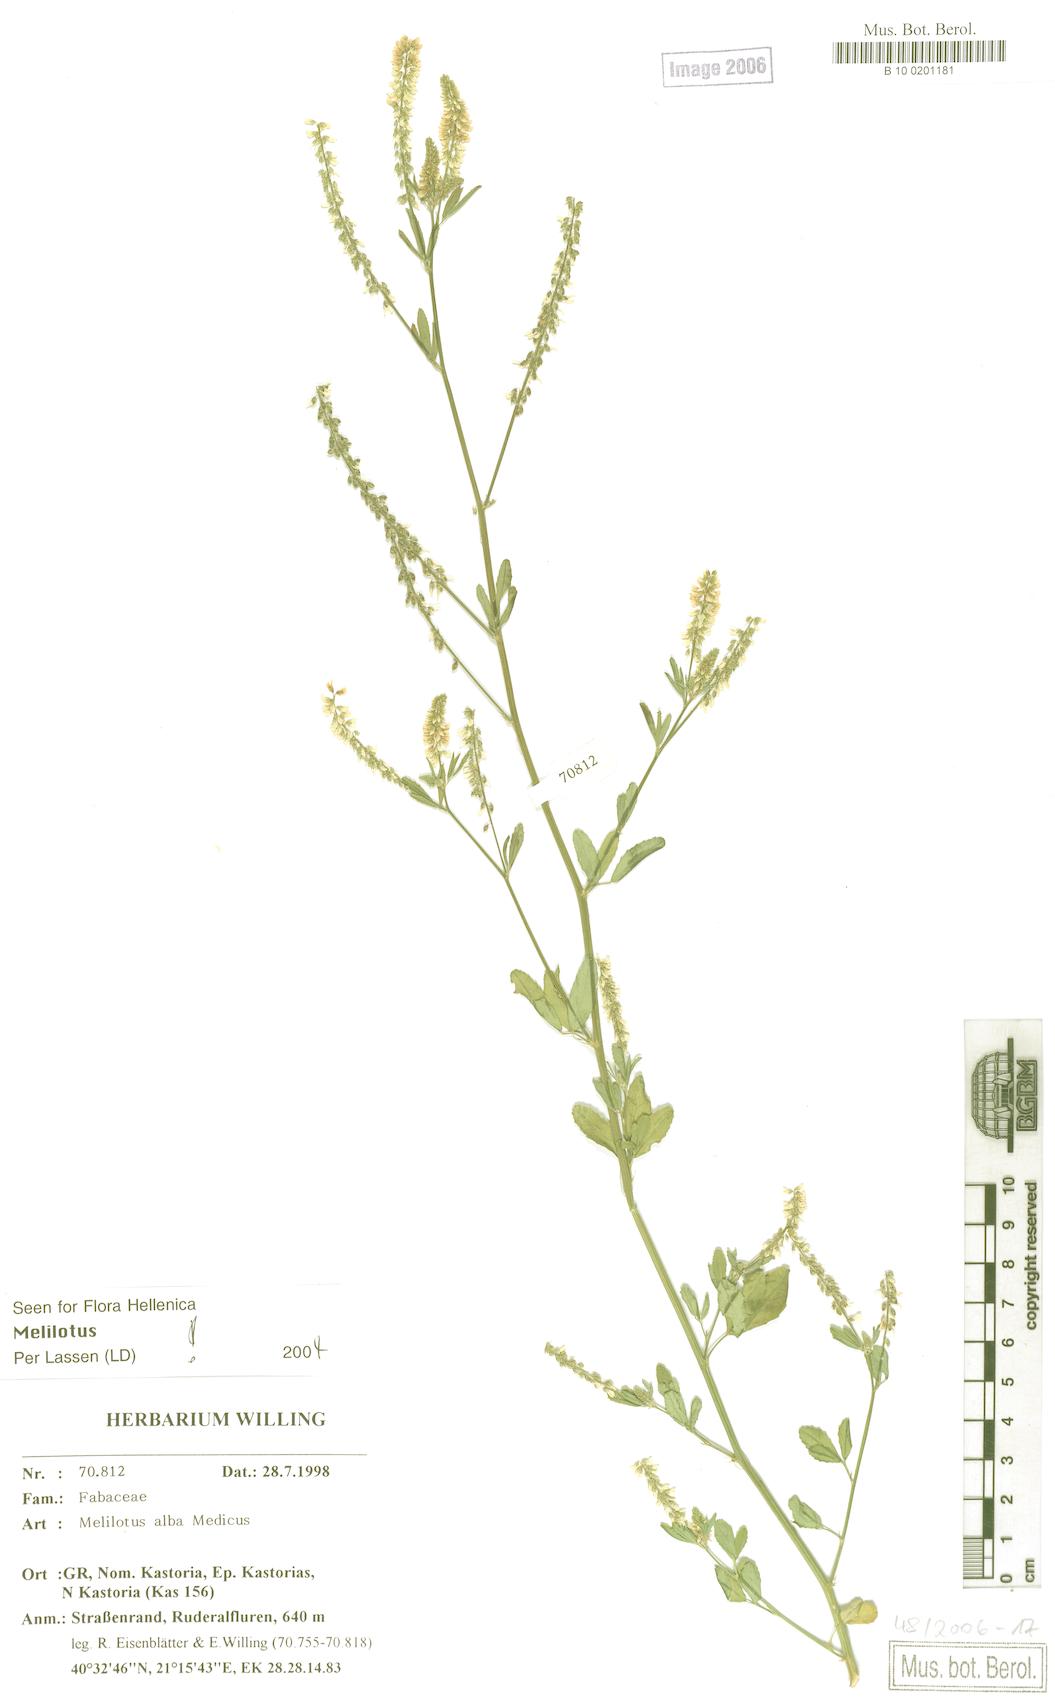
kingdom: Plantae
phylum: Tracheophyta
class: Magnoliopsida
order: Fabales
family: Fabaceae
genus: Melilotus
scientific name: Melilotus albus
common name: White melilot
